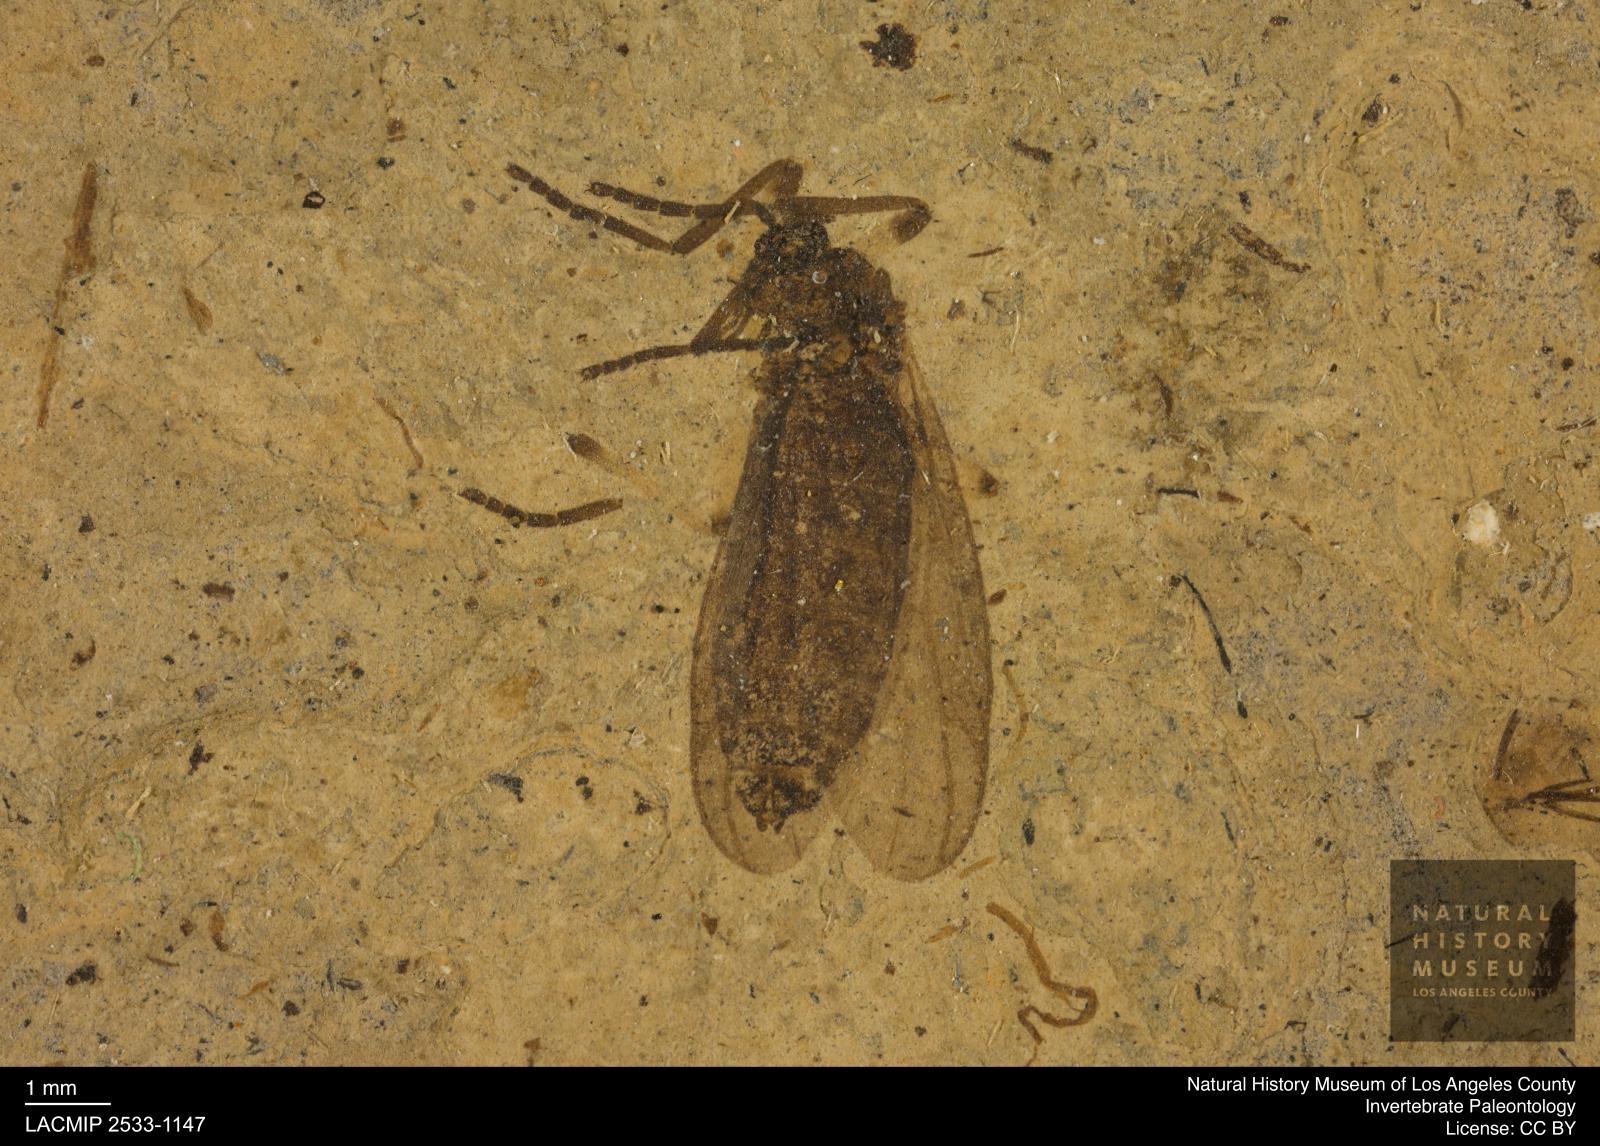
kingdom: Animalia
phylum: Arthropoda
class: Insecta
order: Diptera
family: Bibionidae
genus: Plecia
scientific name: Plecia hypogaea
